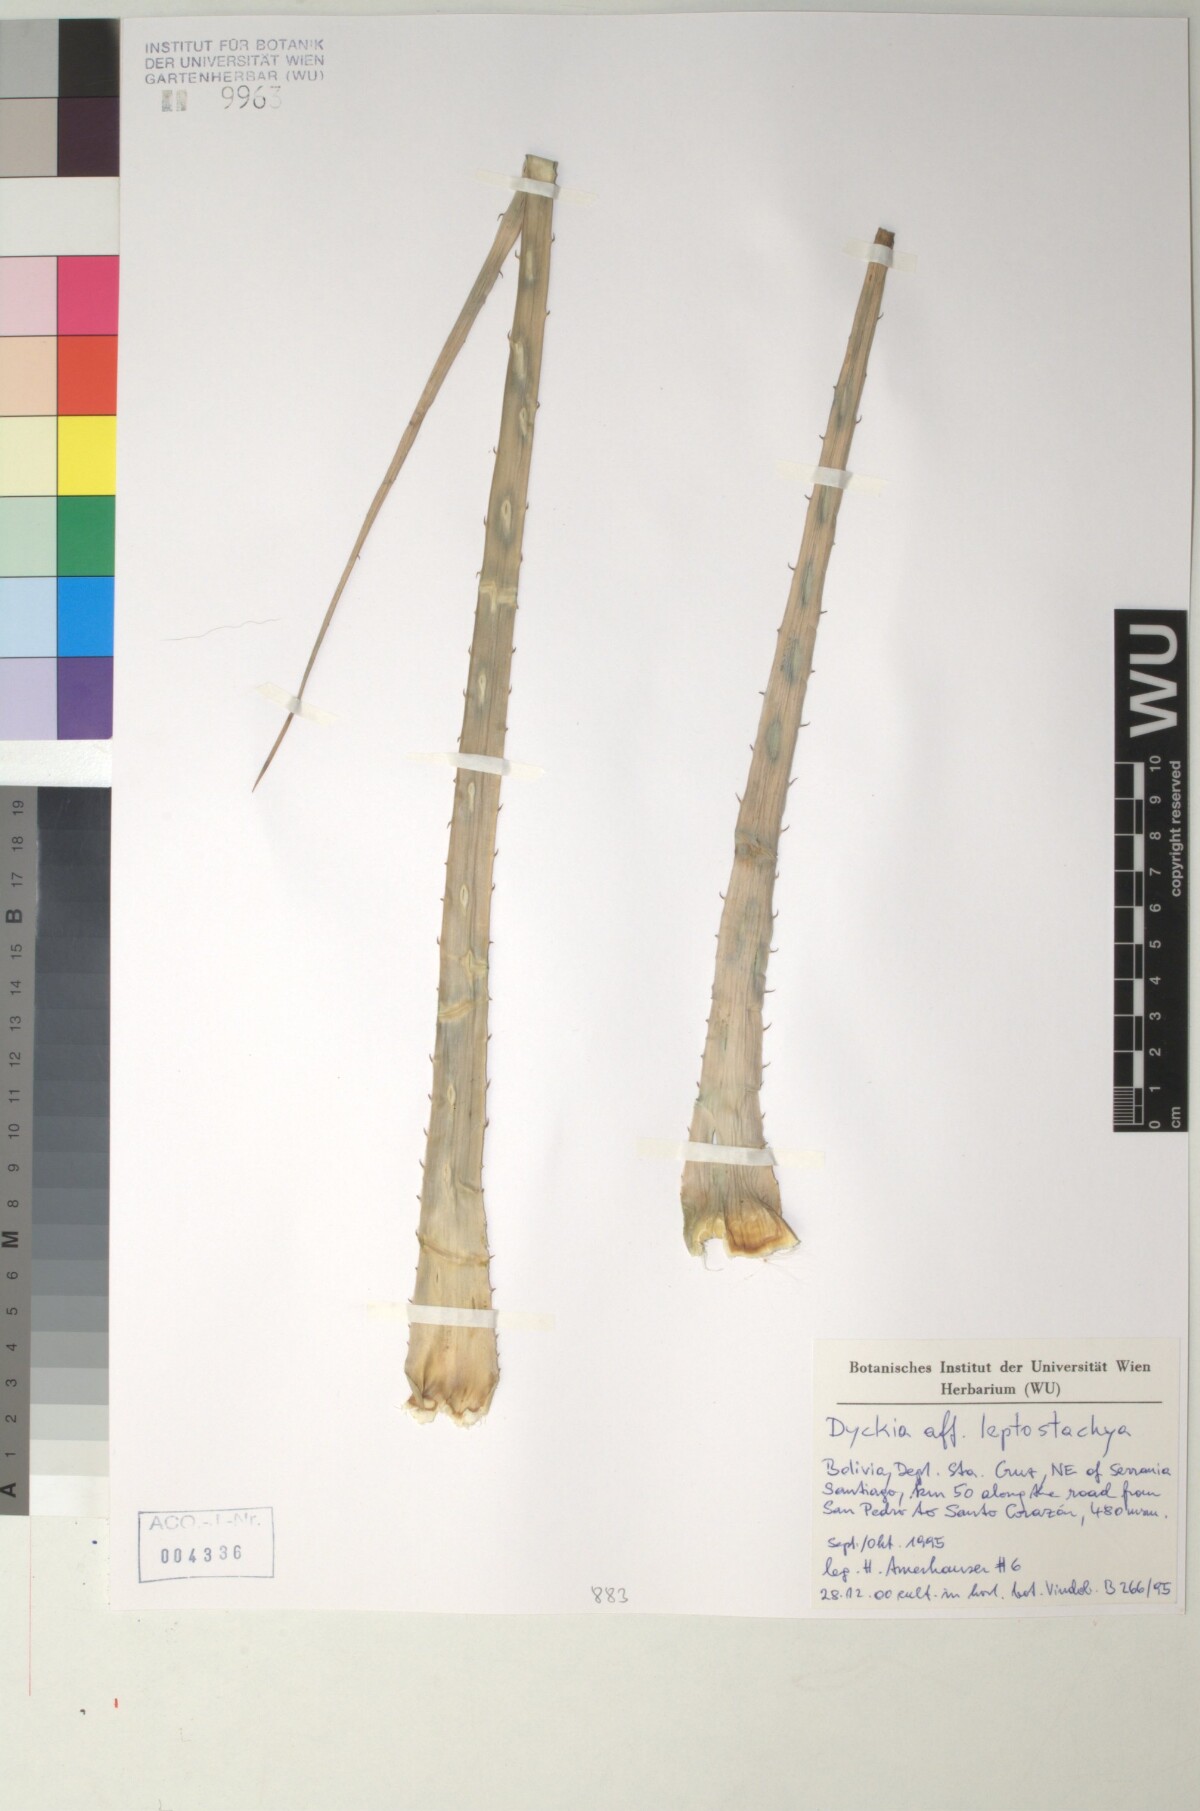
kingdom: Plantae
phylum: Tracheophyta
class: Liliopsida
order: Poales
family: Bromeliaceae
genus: Dyckia
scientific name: Dyckia leptostachya
